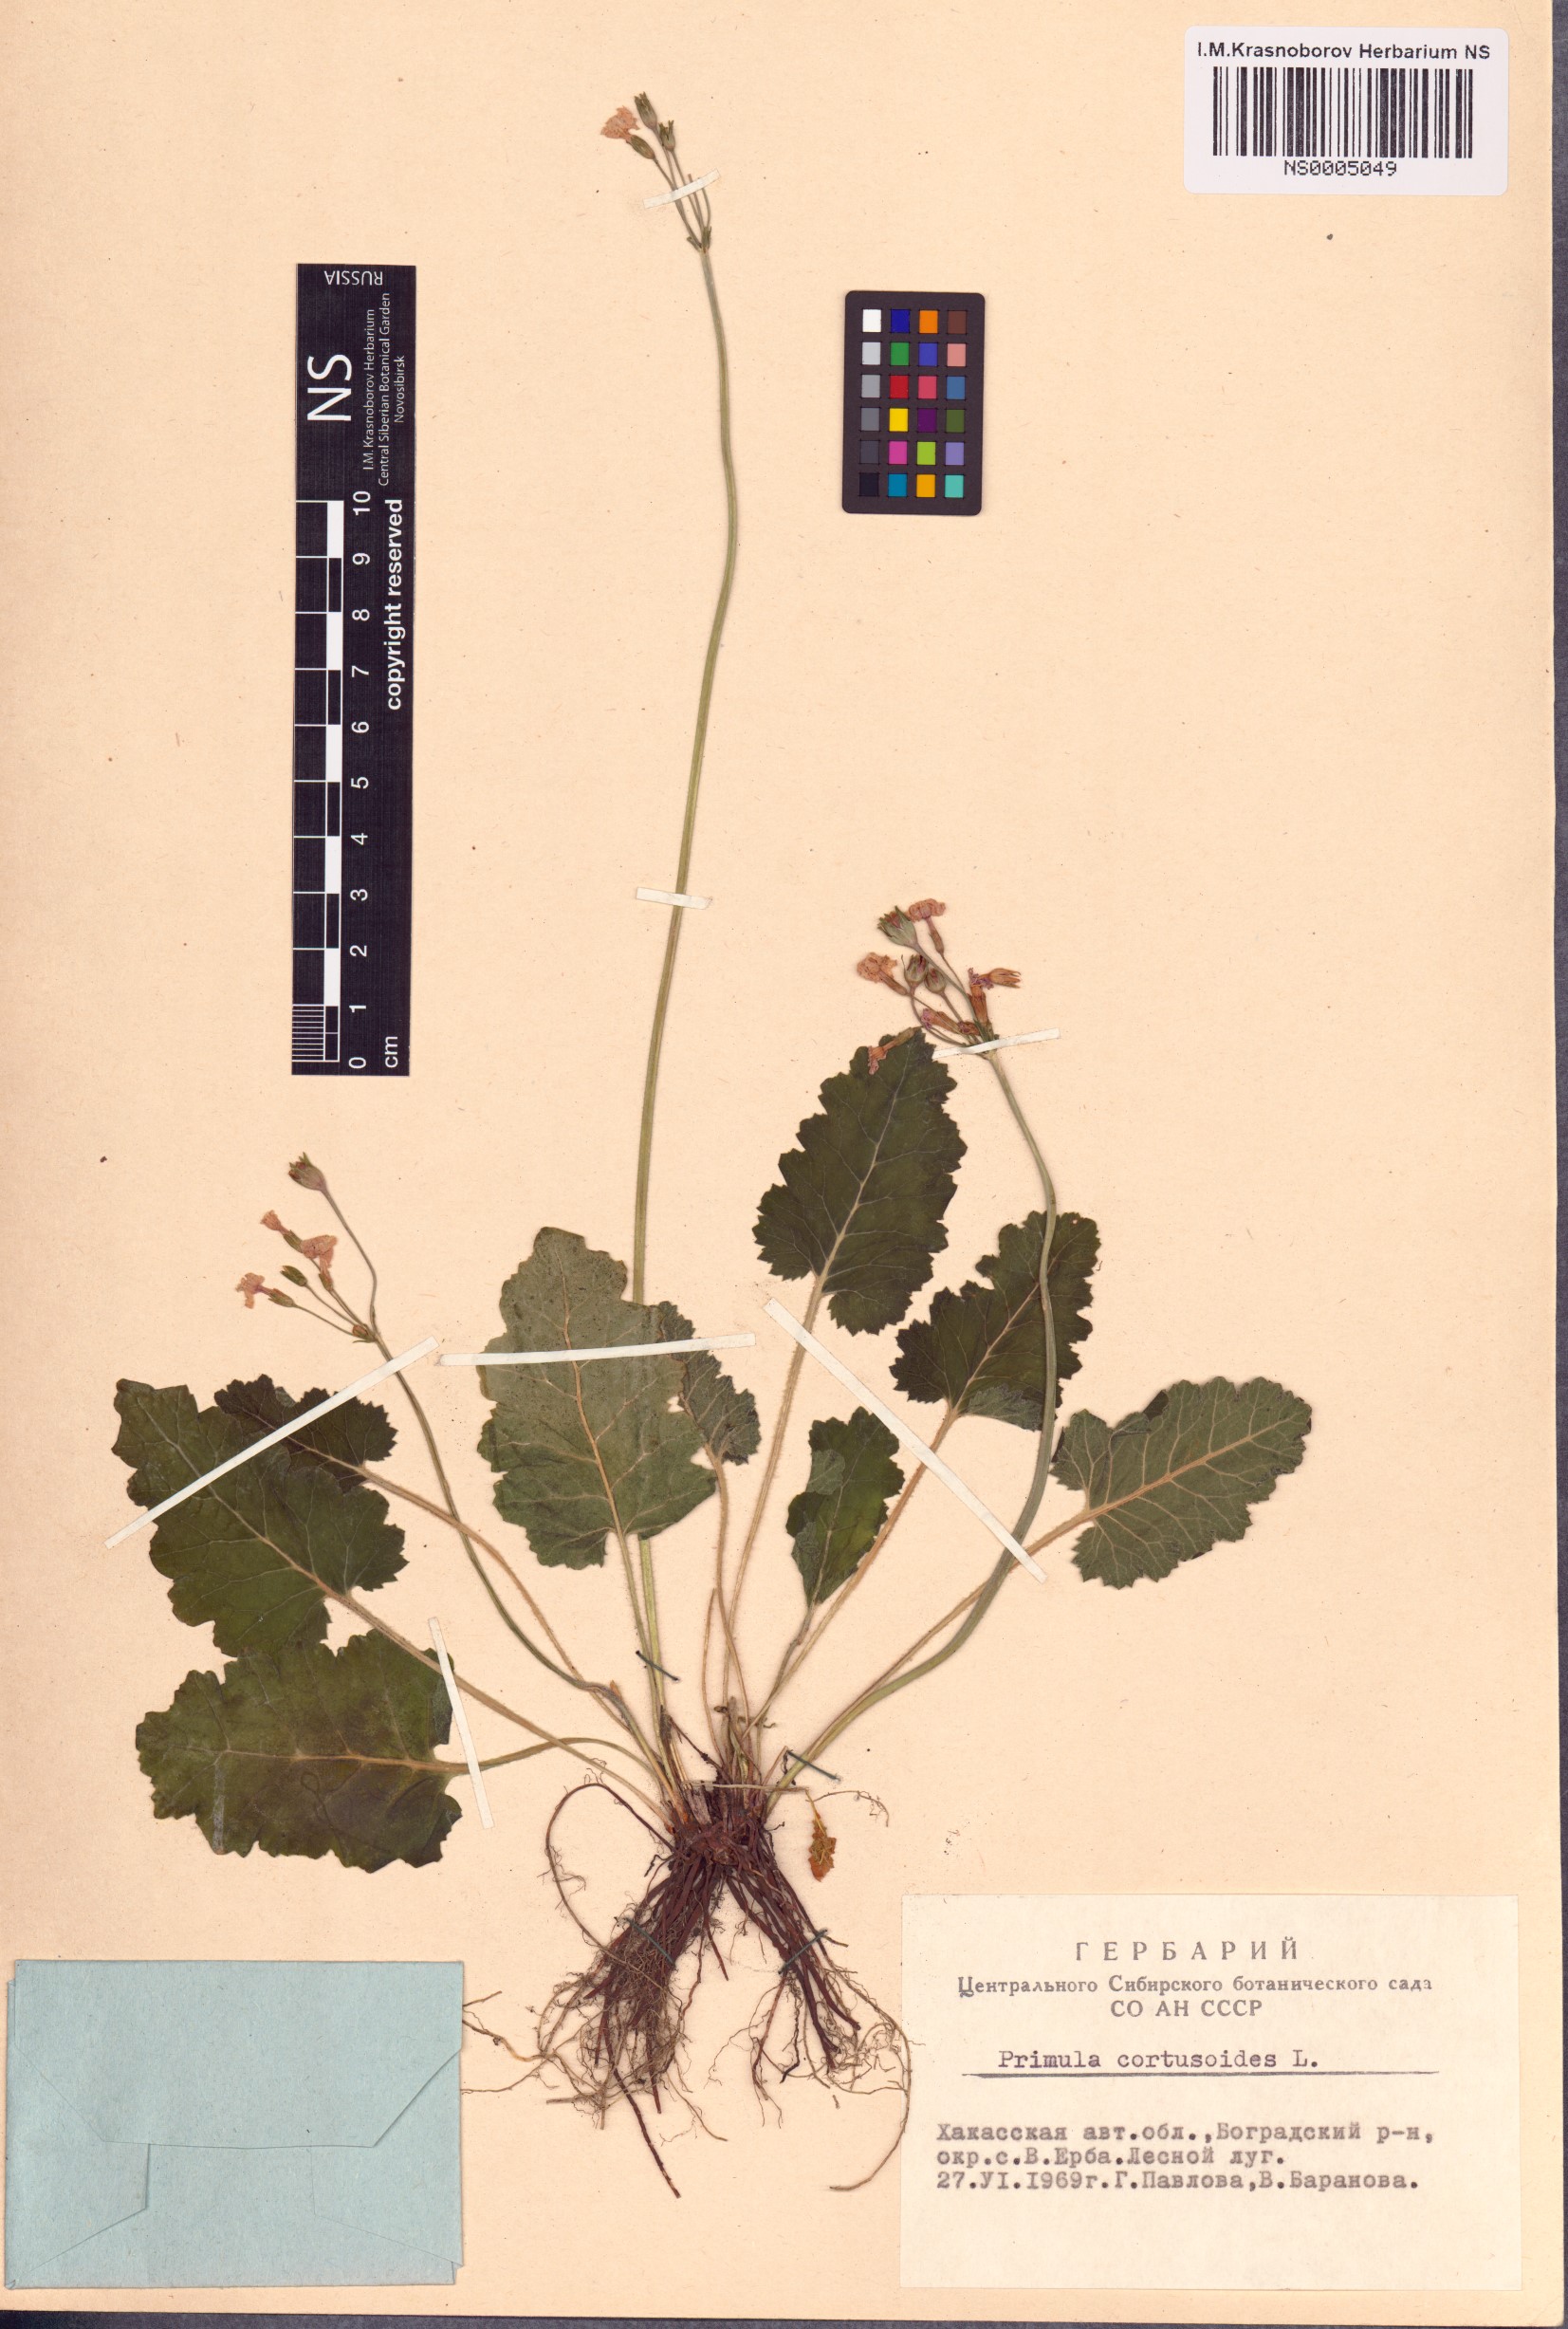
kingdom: Plantae
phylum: Tracheophyta
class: Magnoliopsida
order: Ericales
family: Primulaceae
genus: Primula
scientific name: Primula cortusoides
